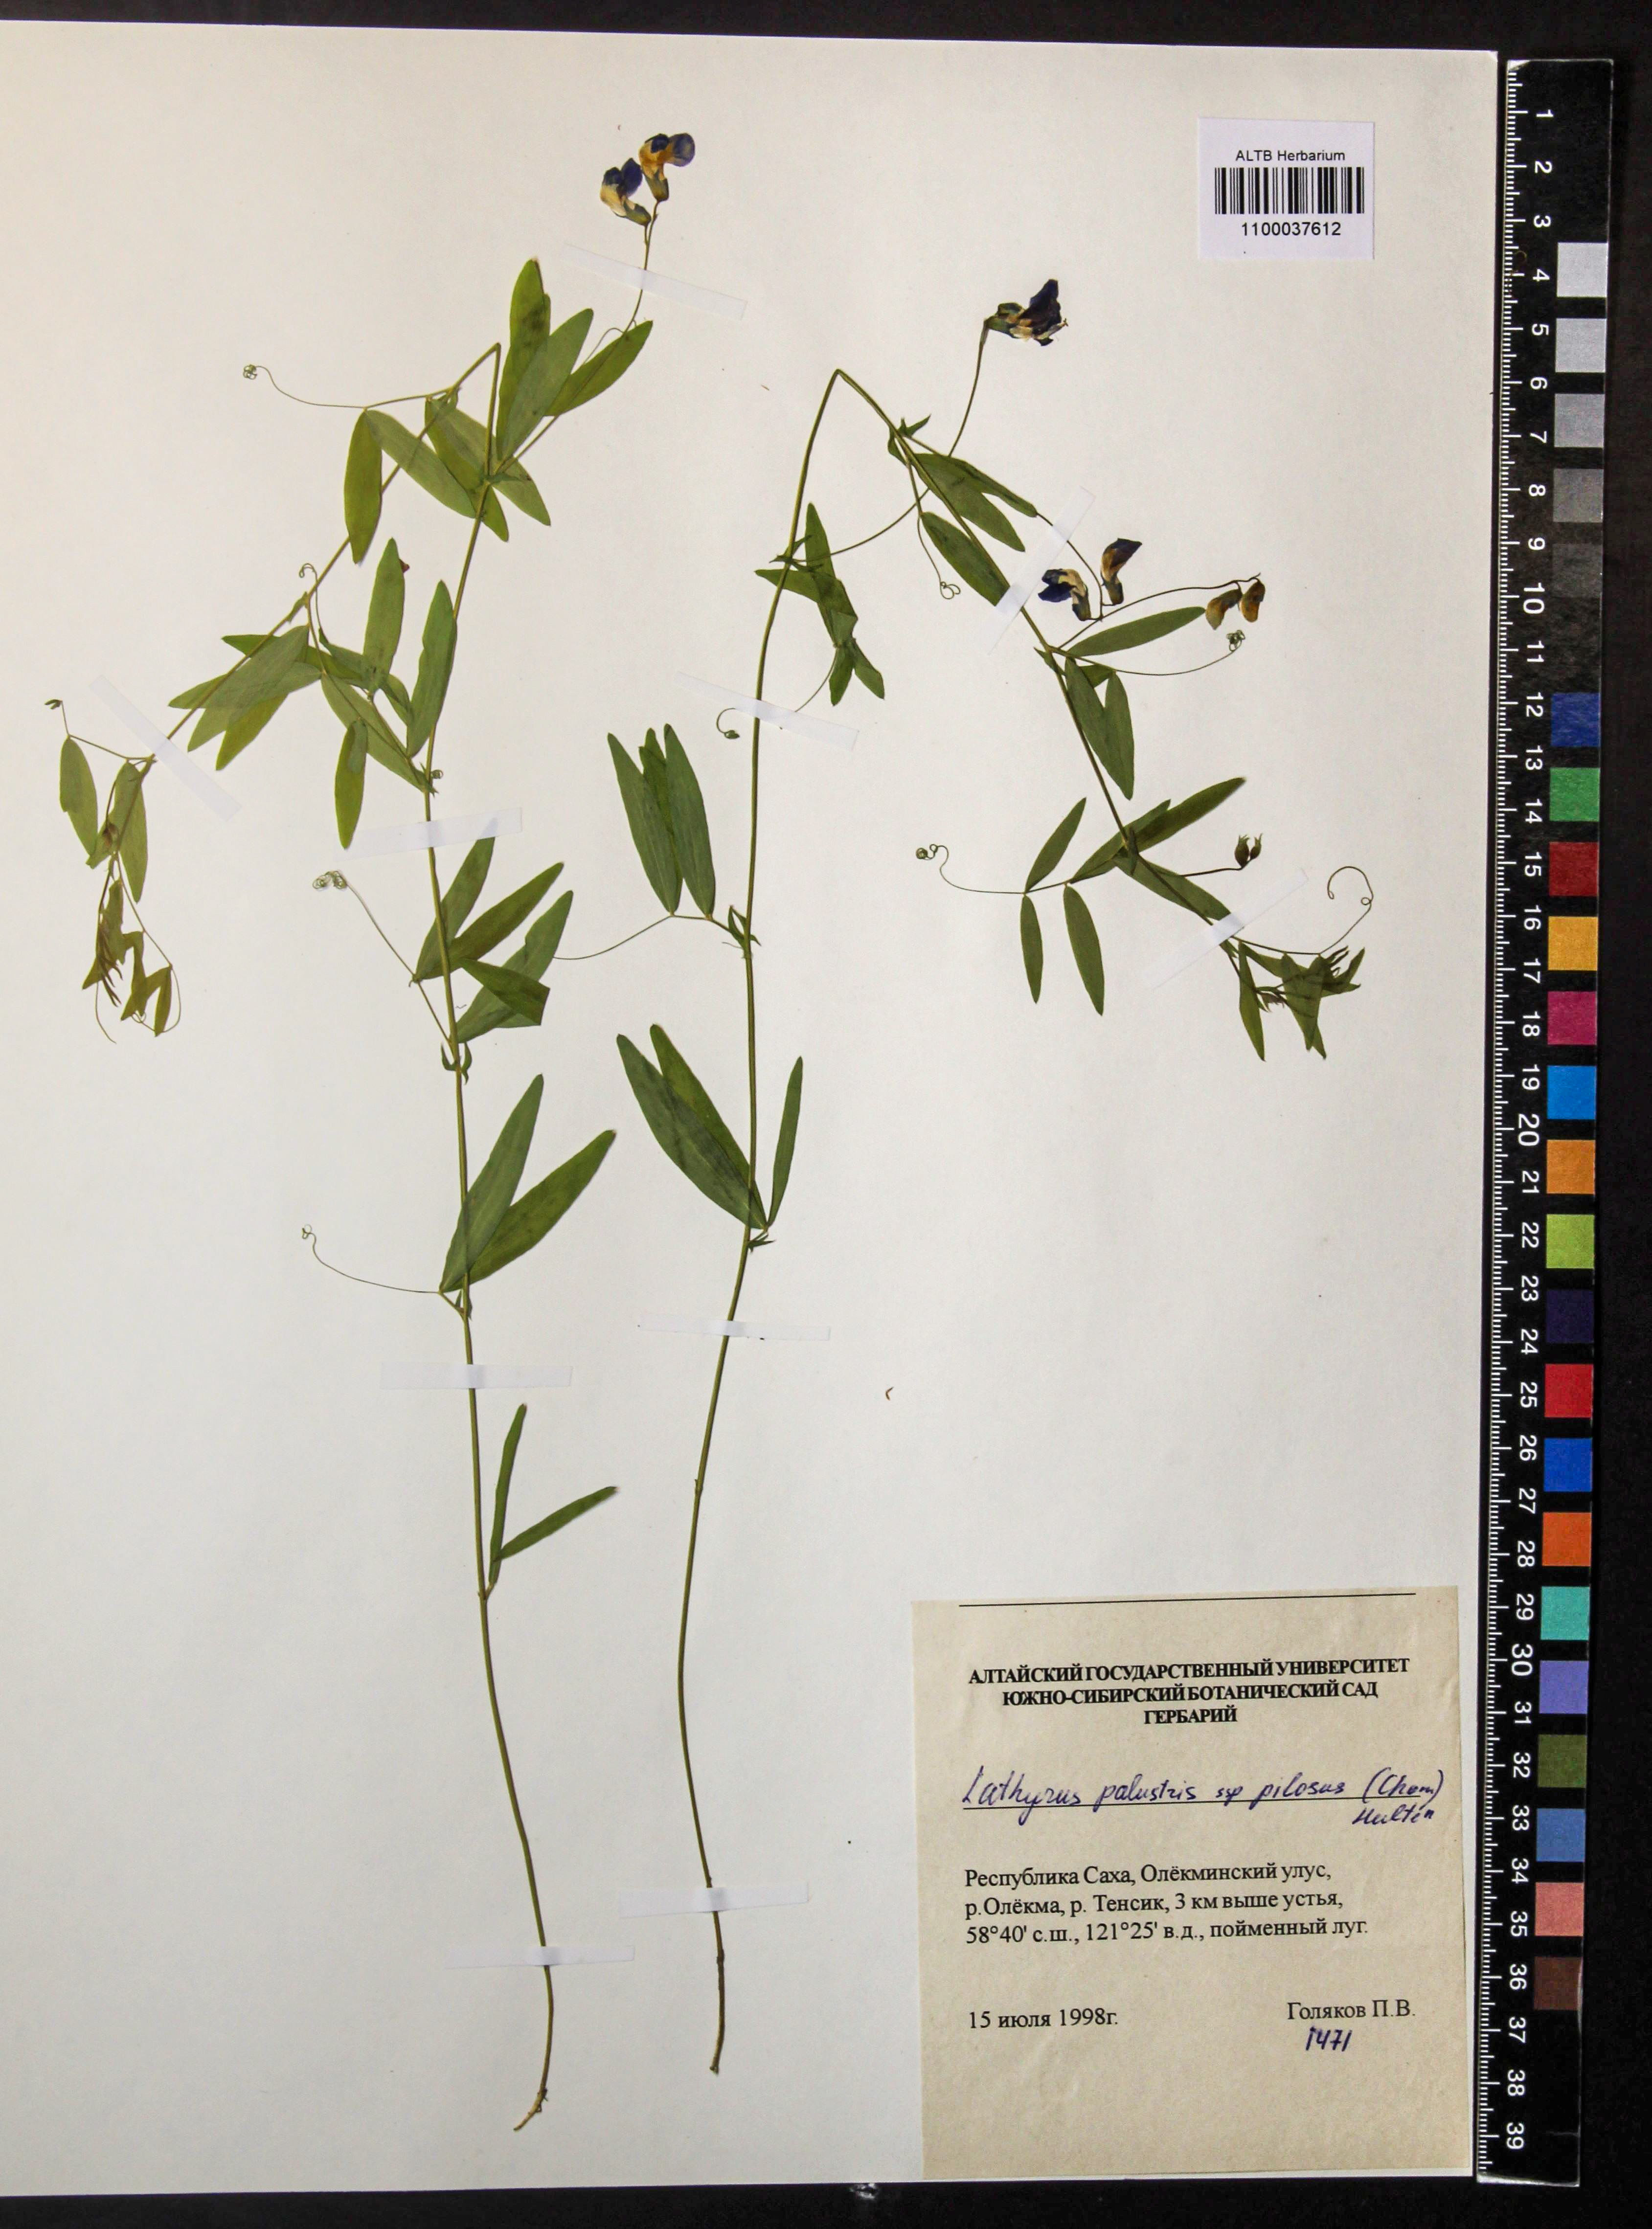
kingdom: Plantae
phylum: Tracheophyta
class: Magnoliopsida
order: Fabales
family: Fabaceae
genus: Lathyrus
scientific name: Lathyrus palustris
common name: Marsh pea
